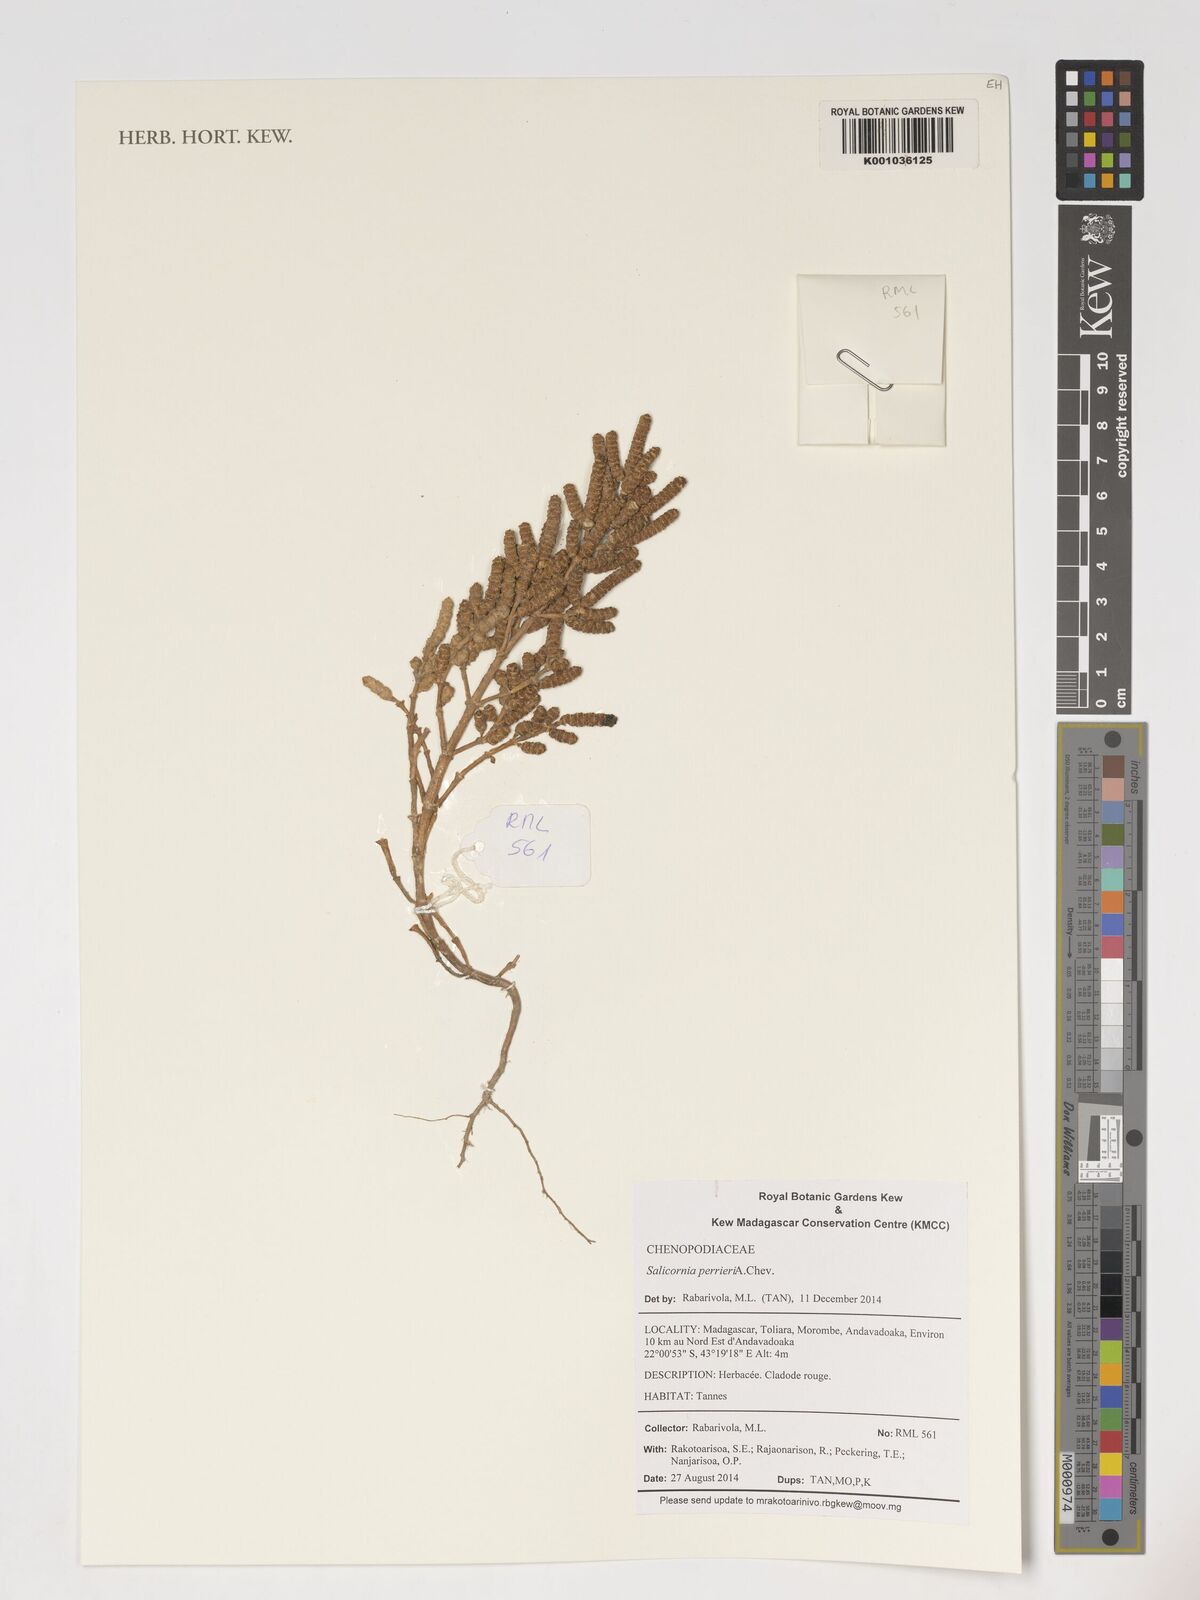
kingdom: Plantae
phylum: Tracheophyta
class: Magnoliopsida
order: Caryophyllales
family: Amaranthaceae
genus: Salicornia
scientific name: Salicornia perrieri
